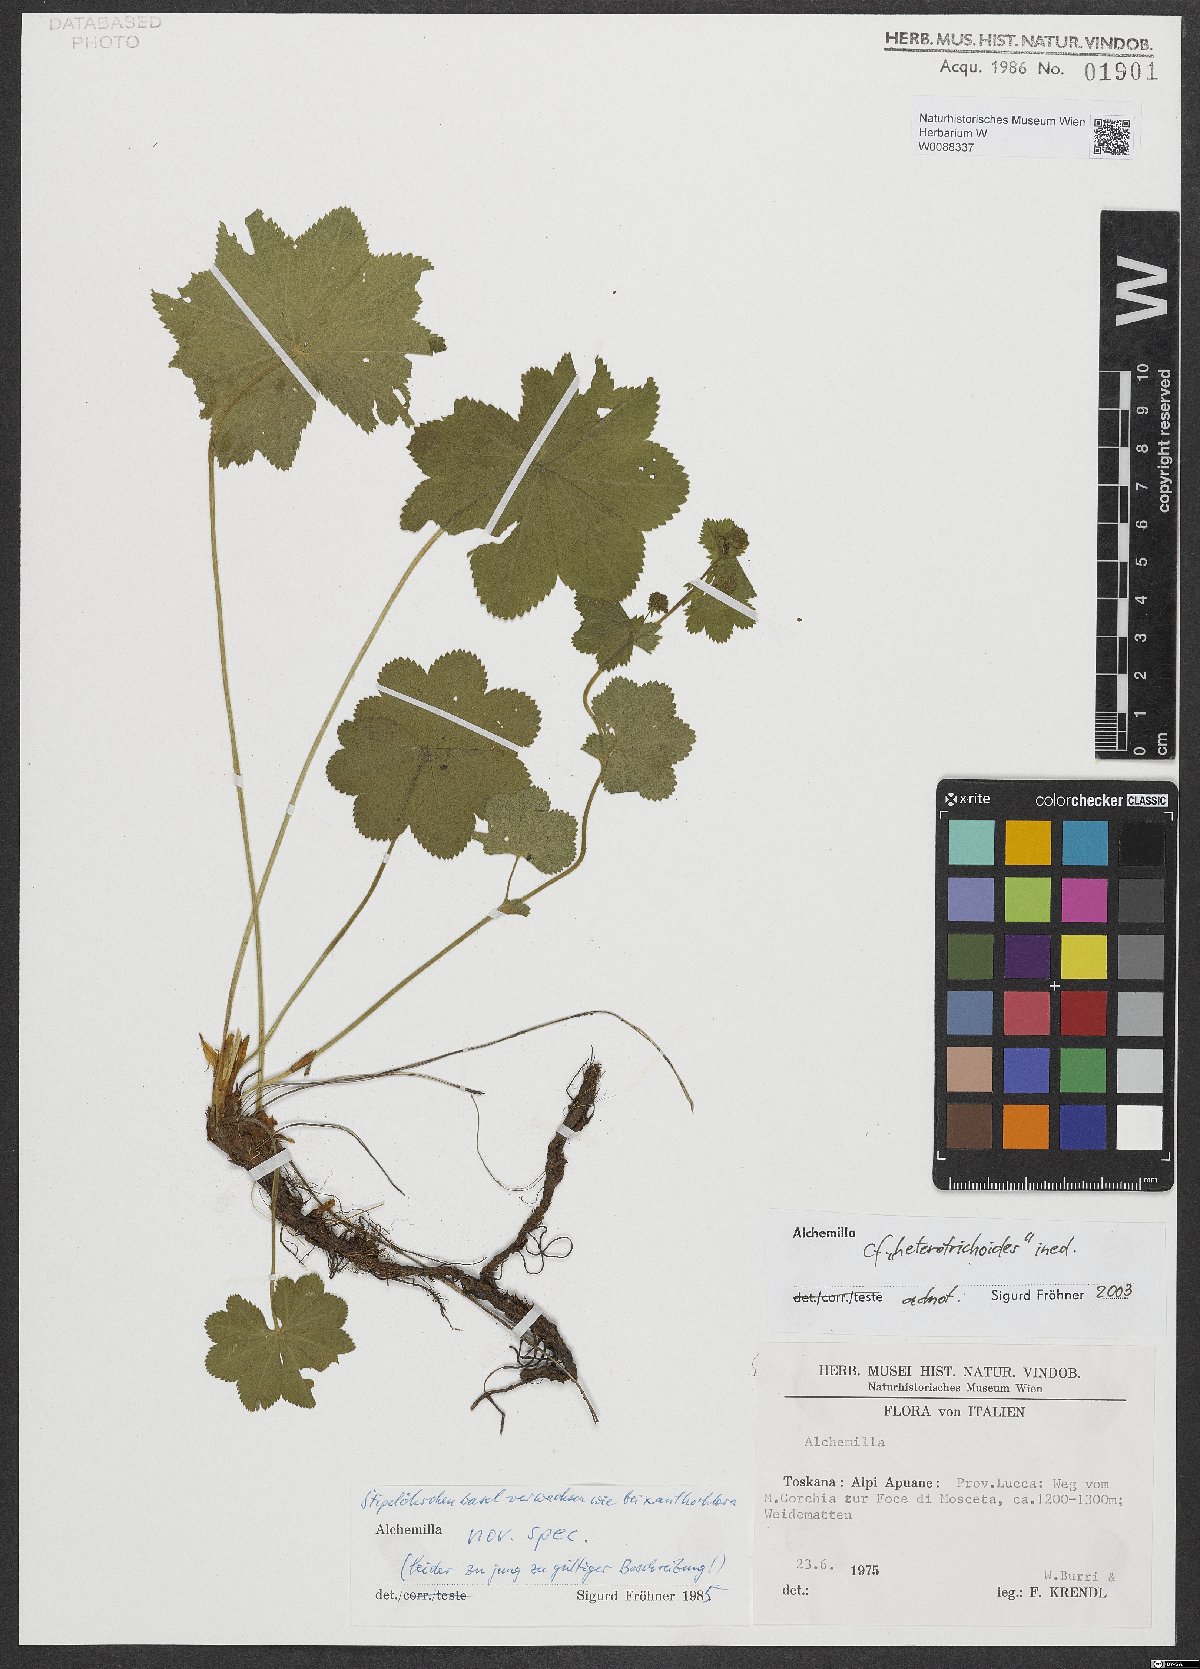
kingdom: Plantae
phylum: Tracheophyta
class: Magnoliopsida
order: Rosales
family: Rosaceae
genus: Alchemilla
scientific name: Alchemilla
